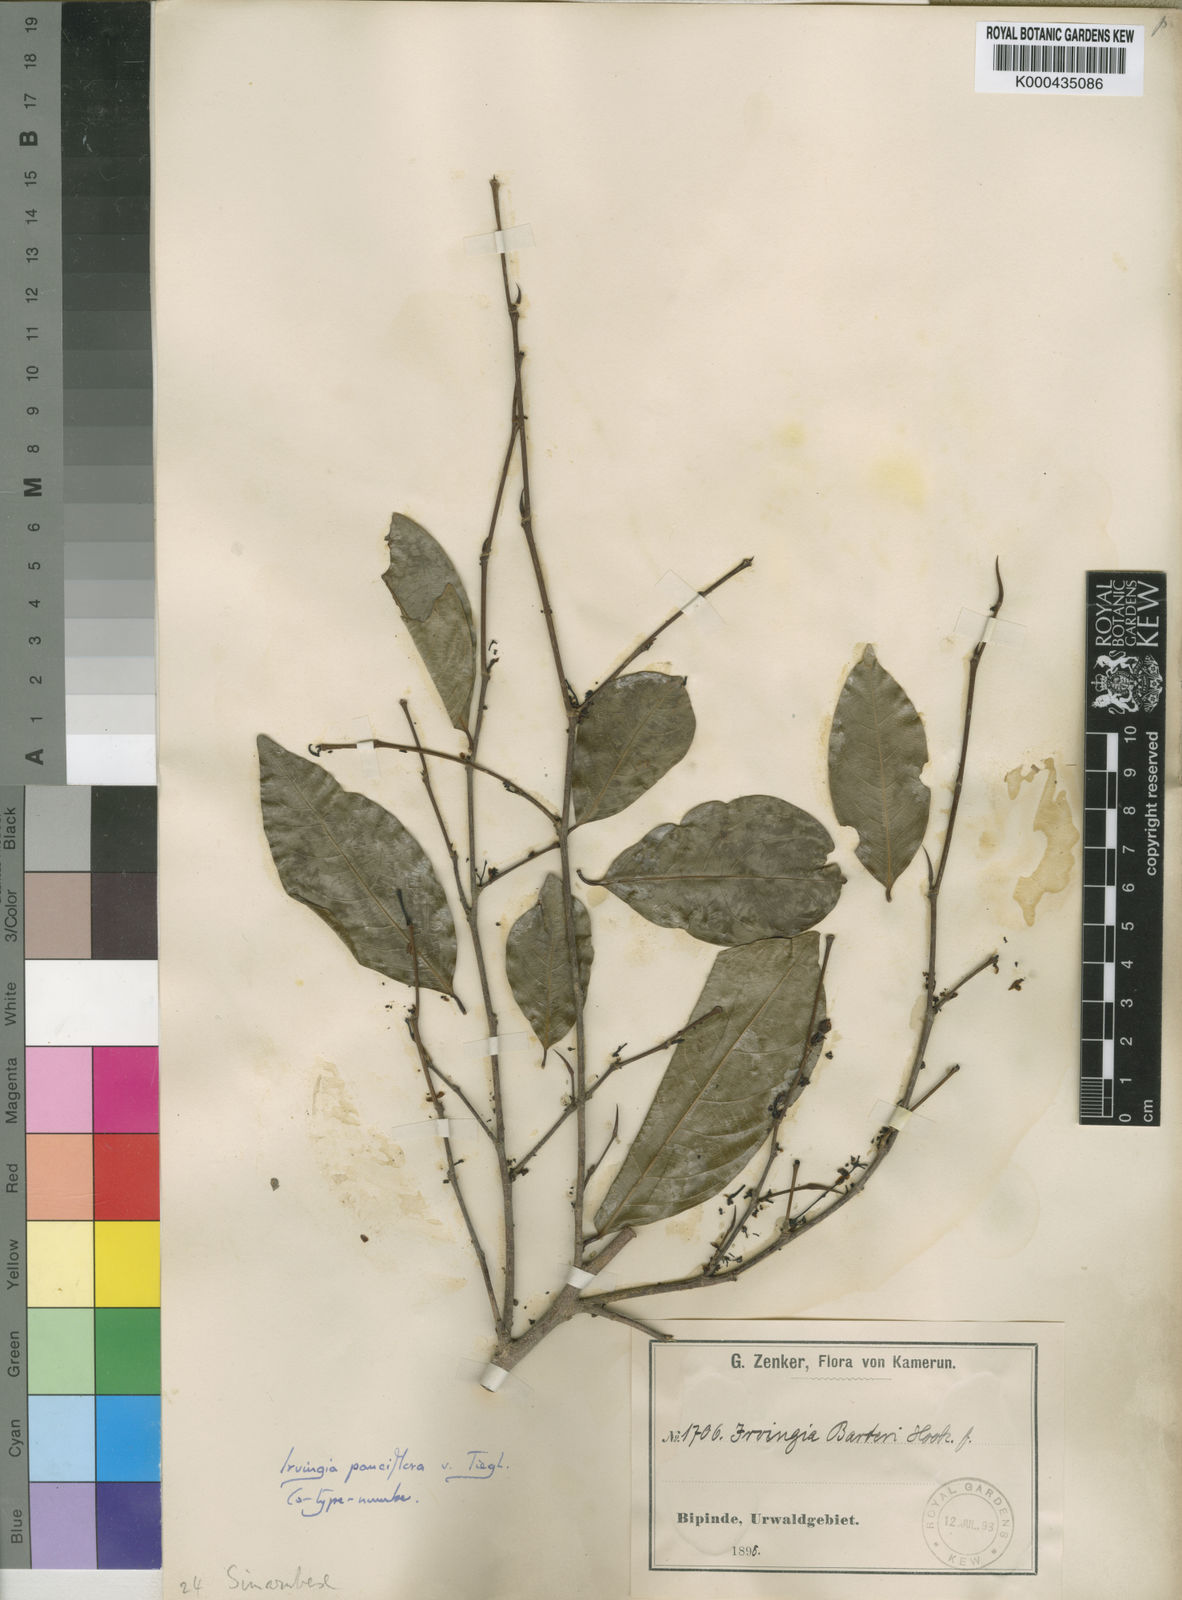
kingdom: Plantae
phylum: Tracheophyta
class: Magnoliopsida
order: Malpighiales
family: Irvingiaceae
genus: Irvingia
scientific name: Irvingia gabonensis
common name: Rainy season bush-mango
